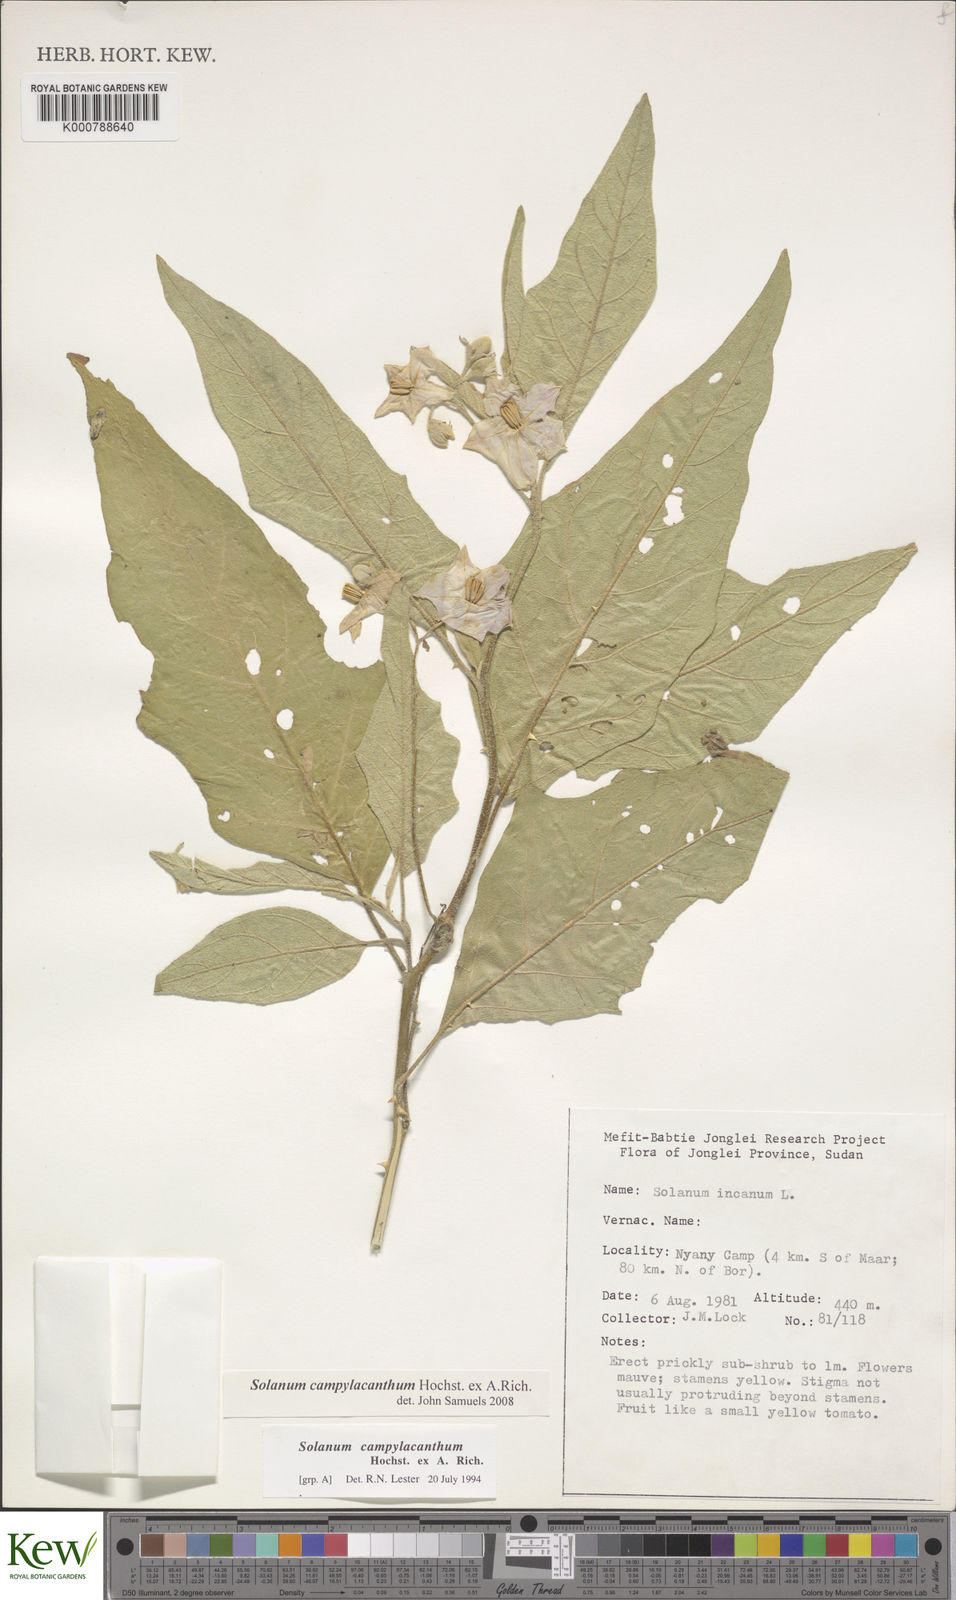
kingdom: Plantae
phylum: Tracheophyta
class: Magnoliopsida
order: Solanales
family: Solanaceae
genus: Solanum
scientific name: Solanum campylacanthum
